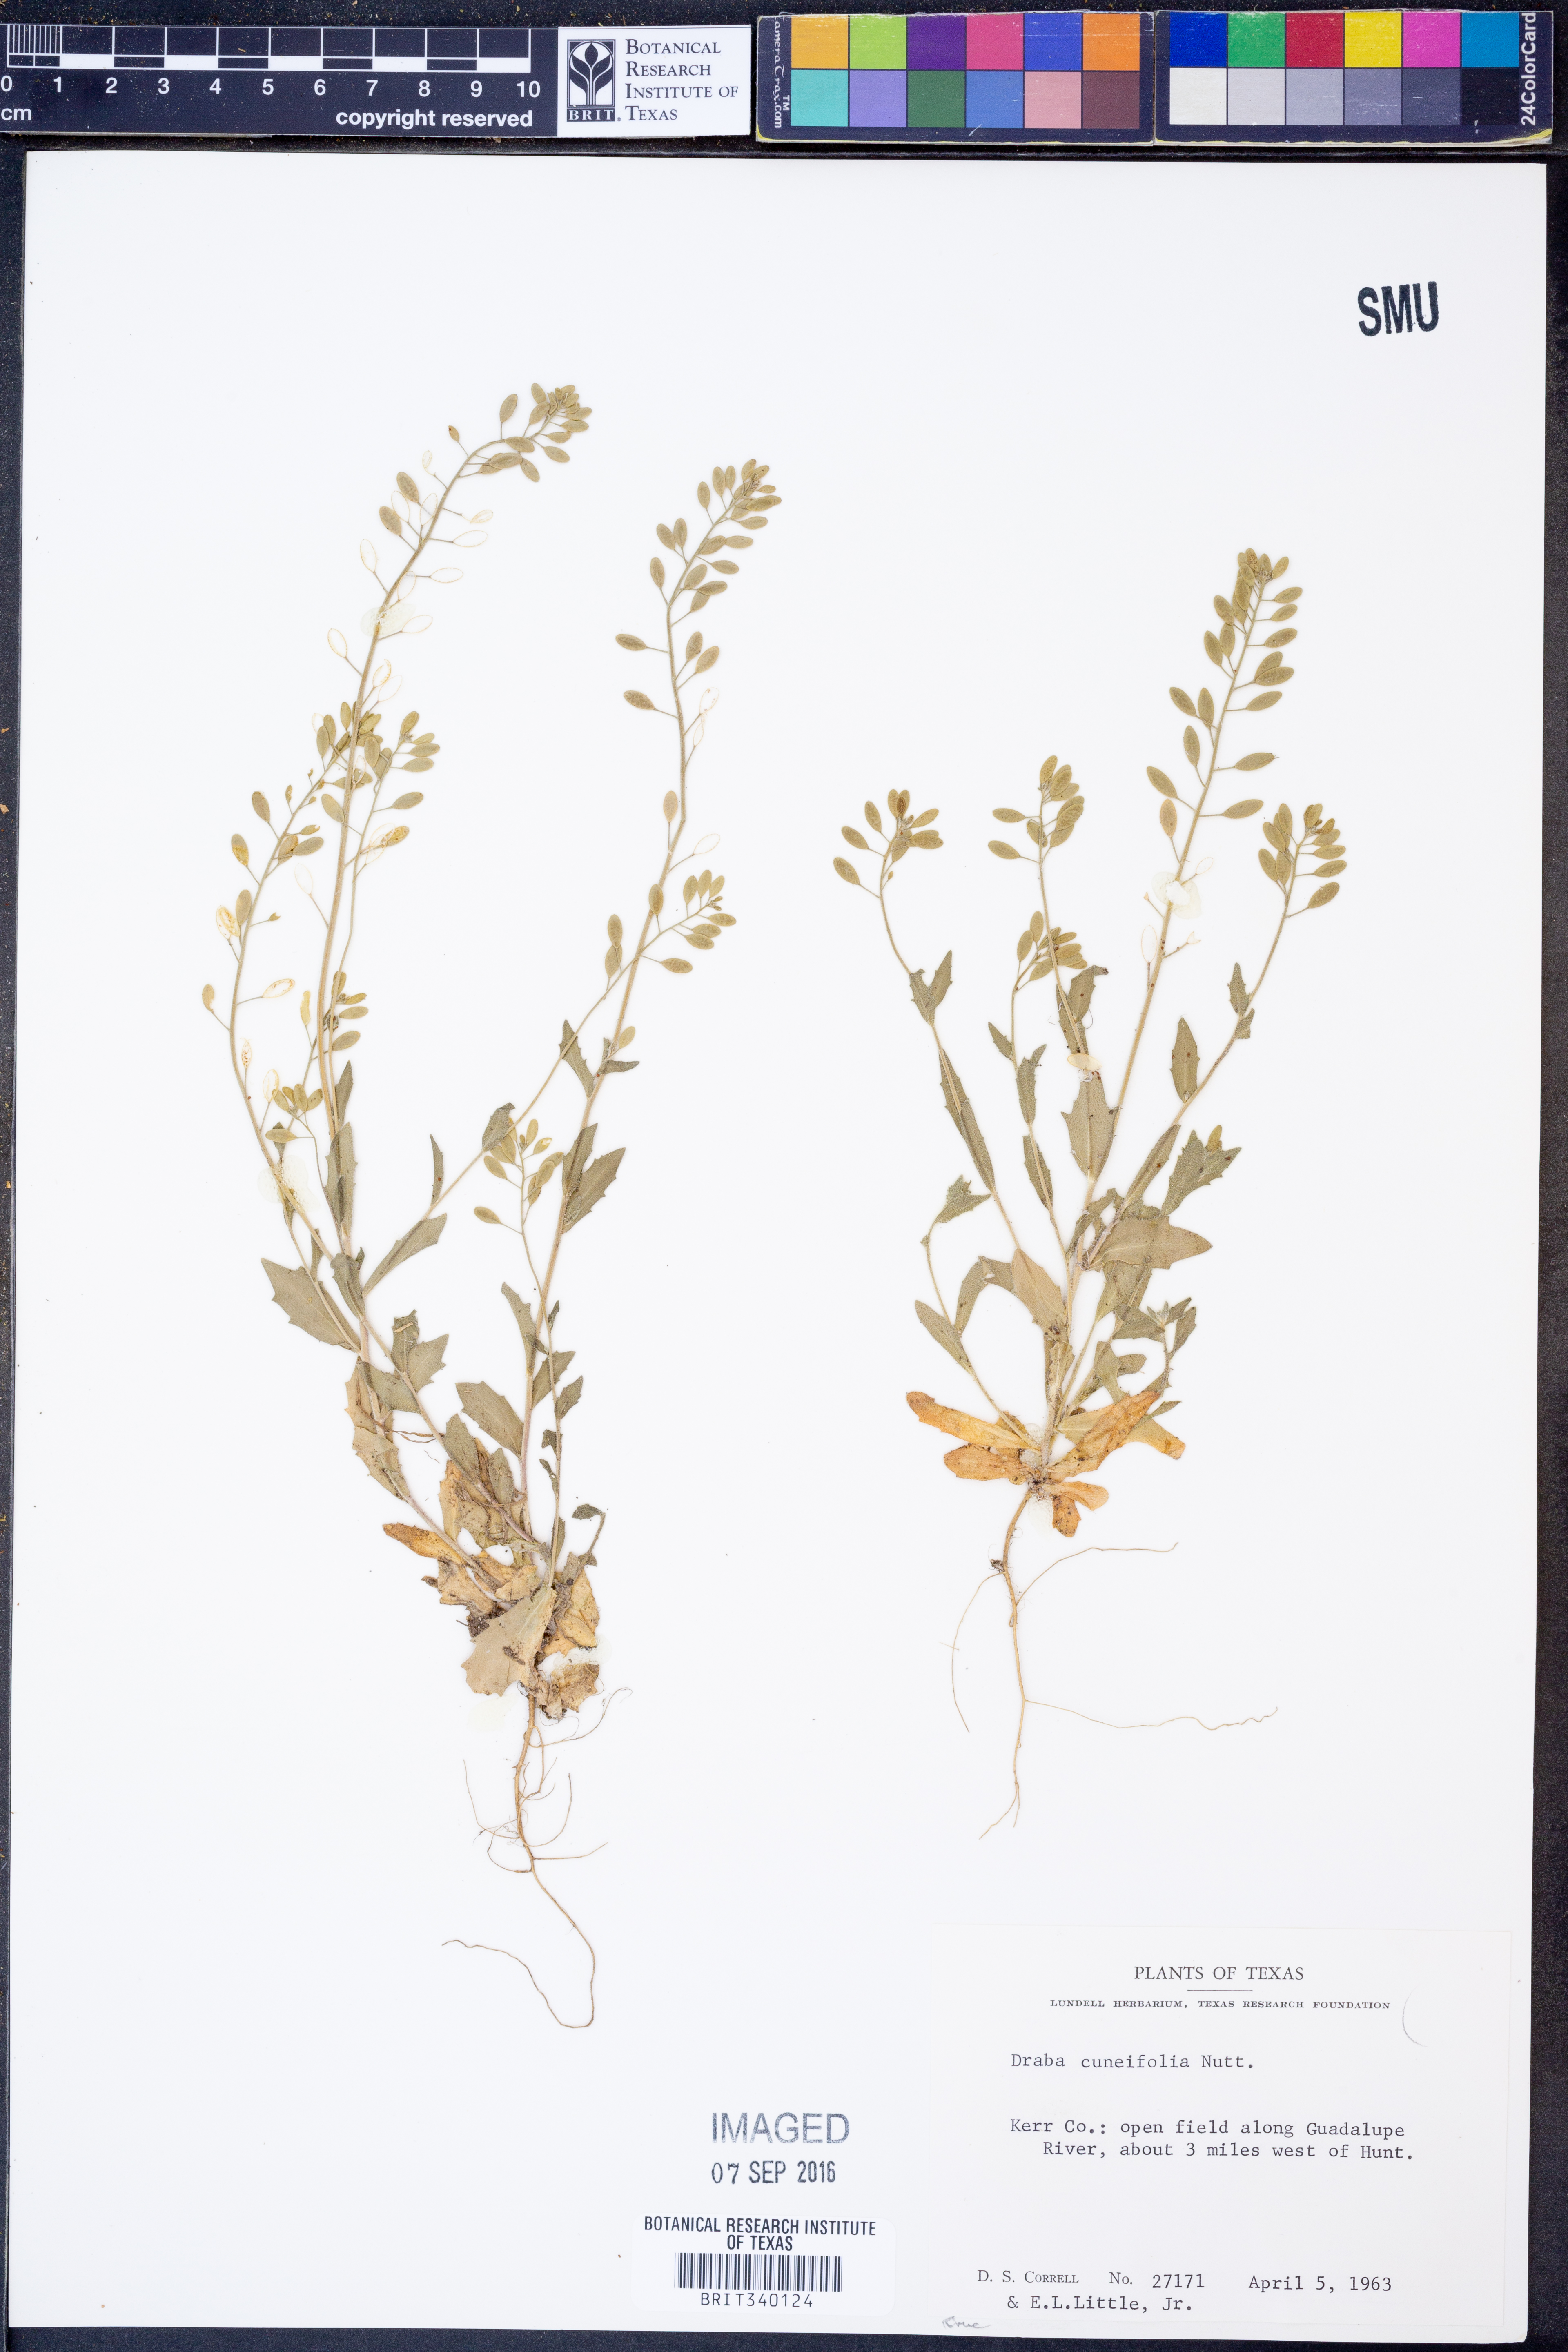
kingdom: Plantae
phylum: Tracheophyta
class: Magnoliopsida
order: Brassicales
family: Brassicaceae
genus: Tomostima
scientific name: Tomostima cuneifolia
